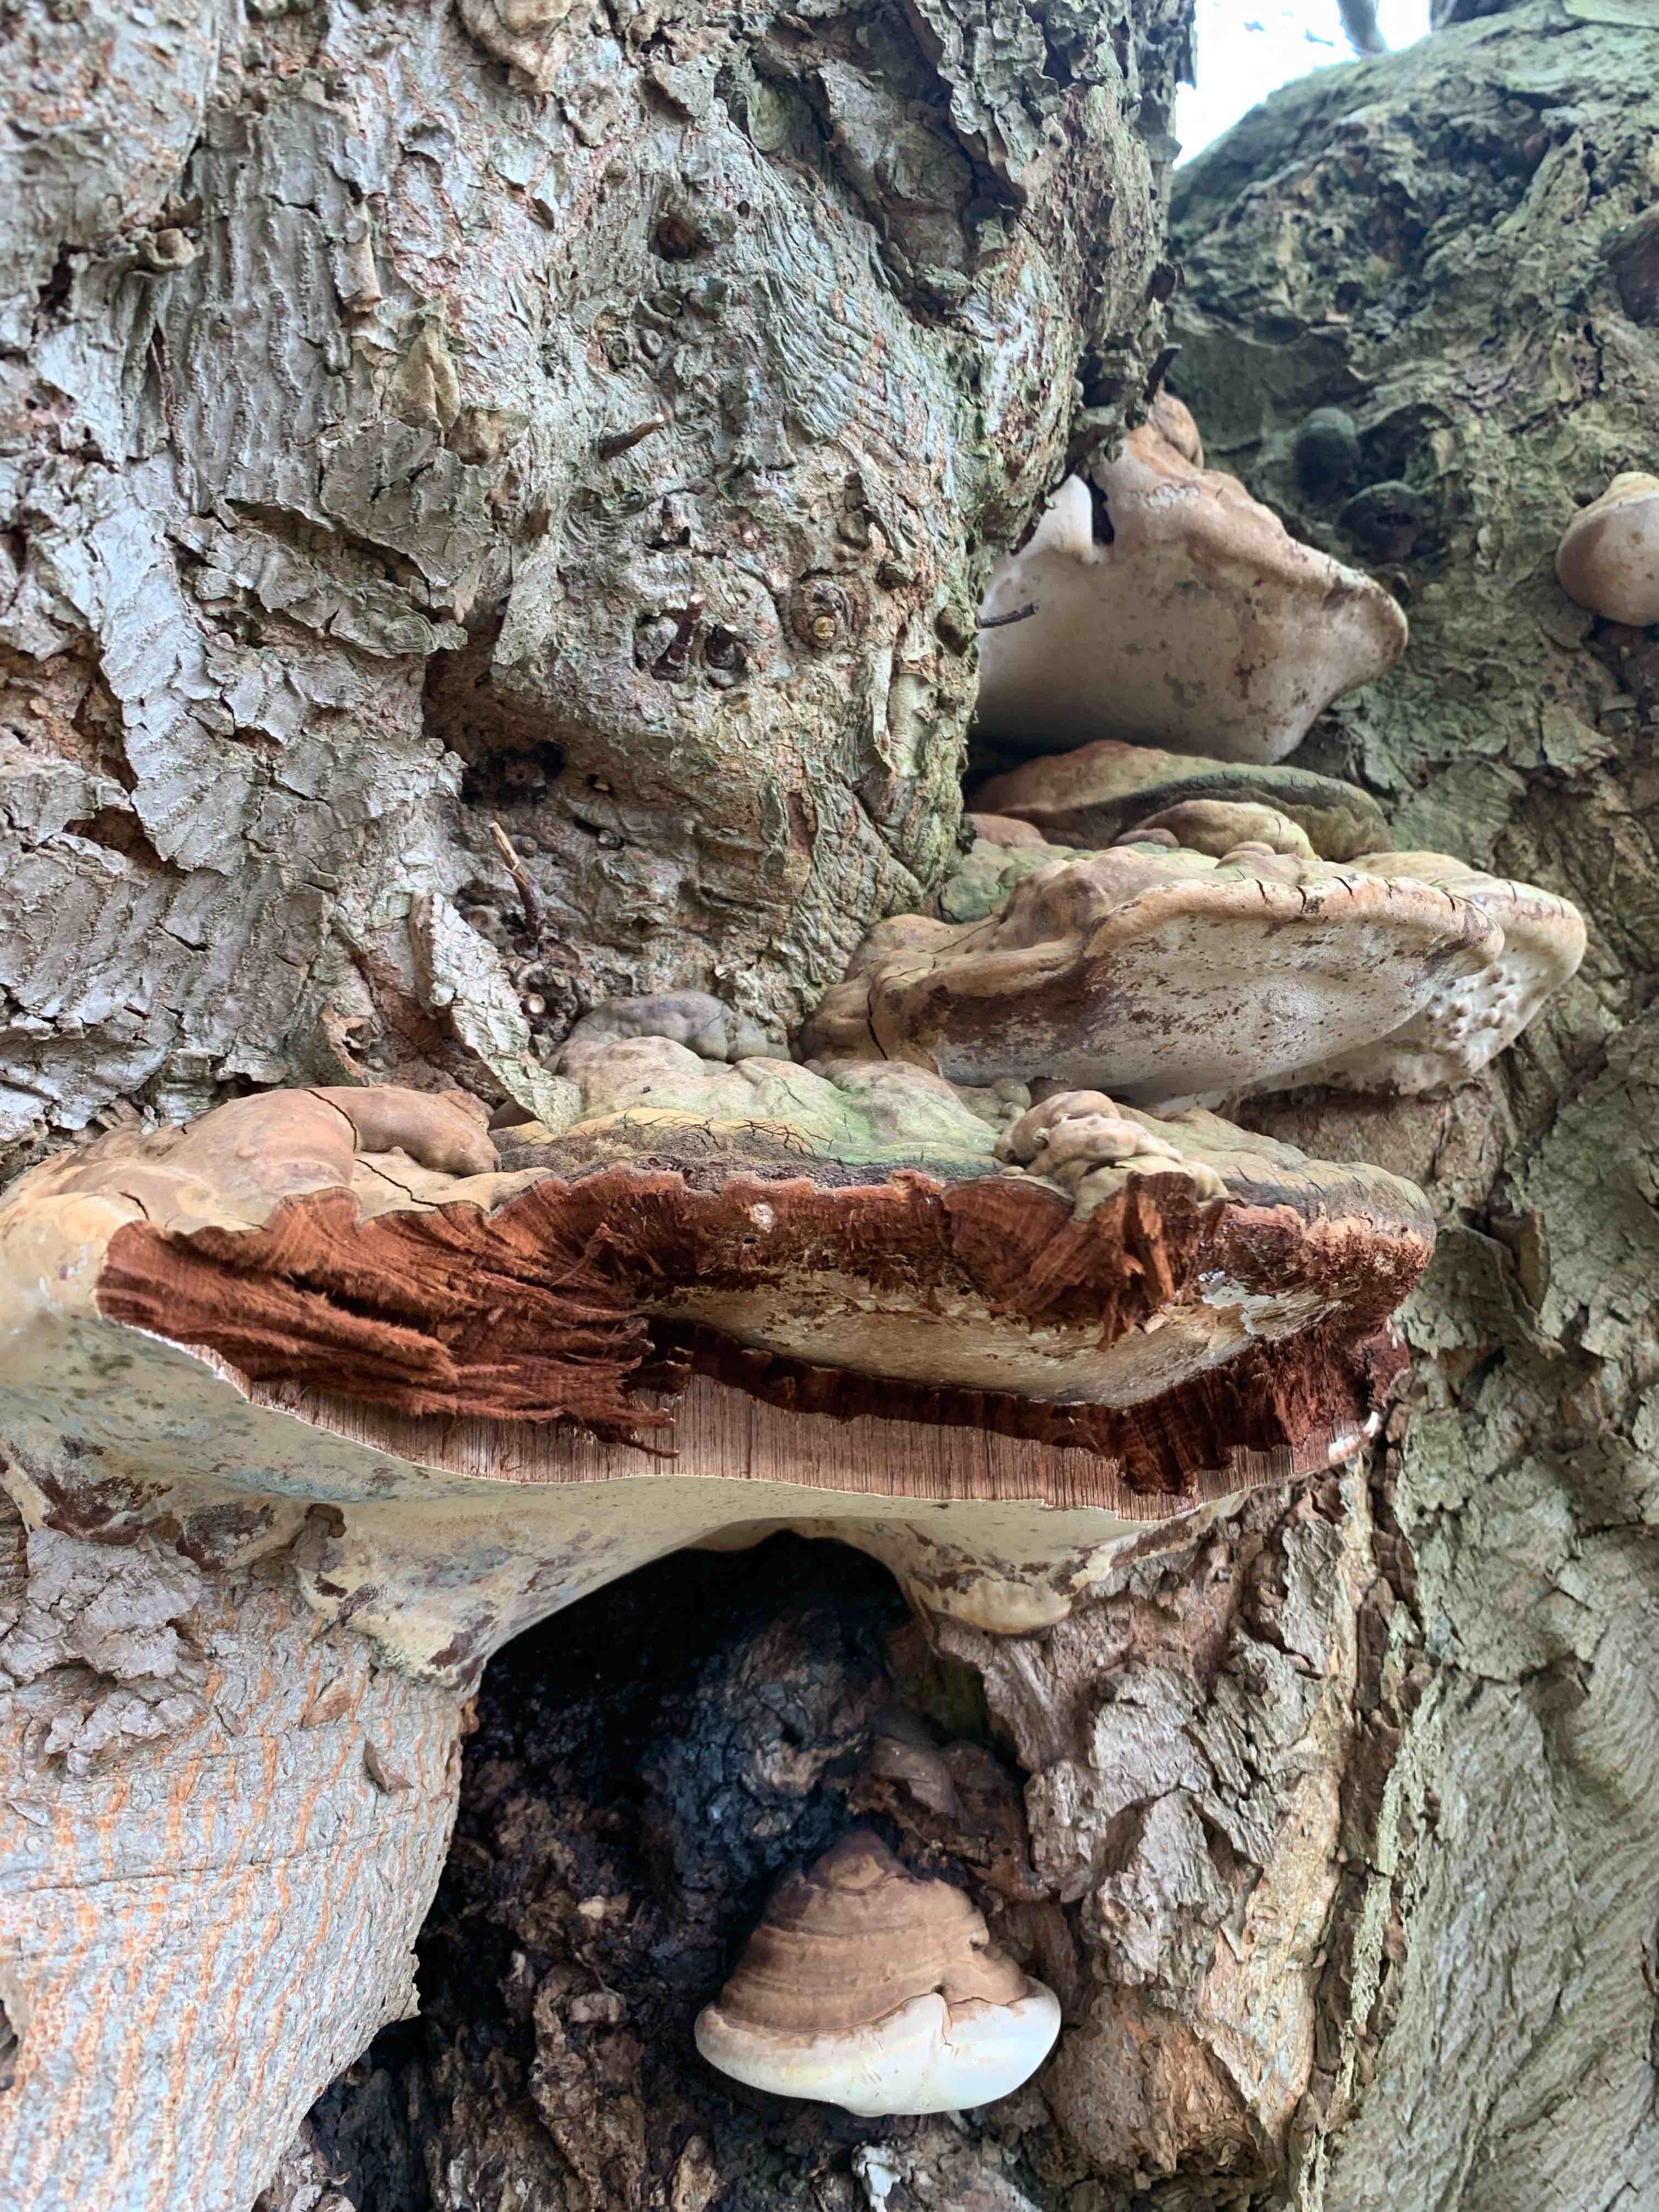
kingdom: Fungi
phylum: Basidiomycota
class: Agaricomycetes
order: Polyporales
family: Polyporaceae
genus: Ganoderma
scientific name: Ganoderma adspersum
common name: grov lakporesvamp
